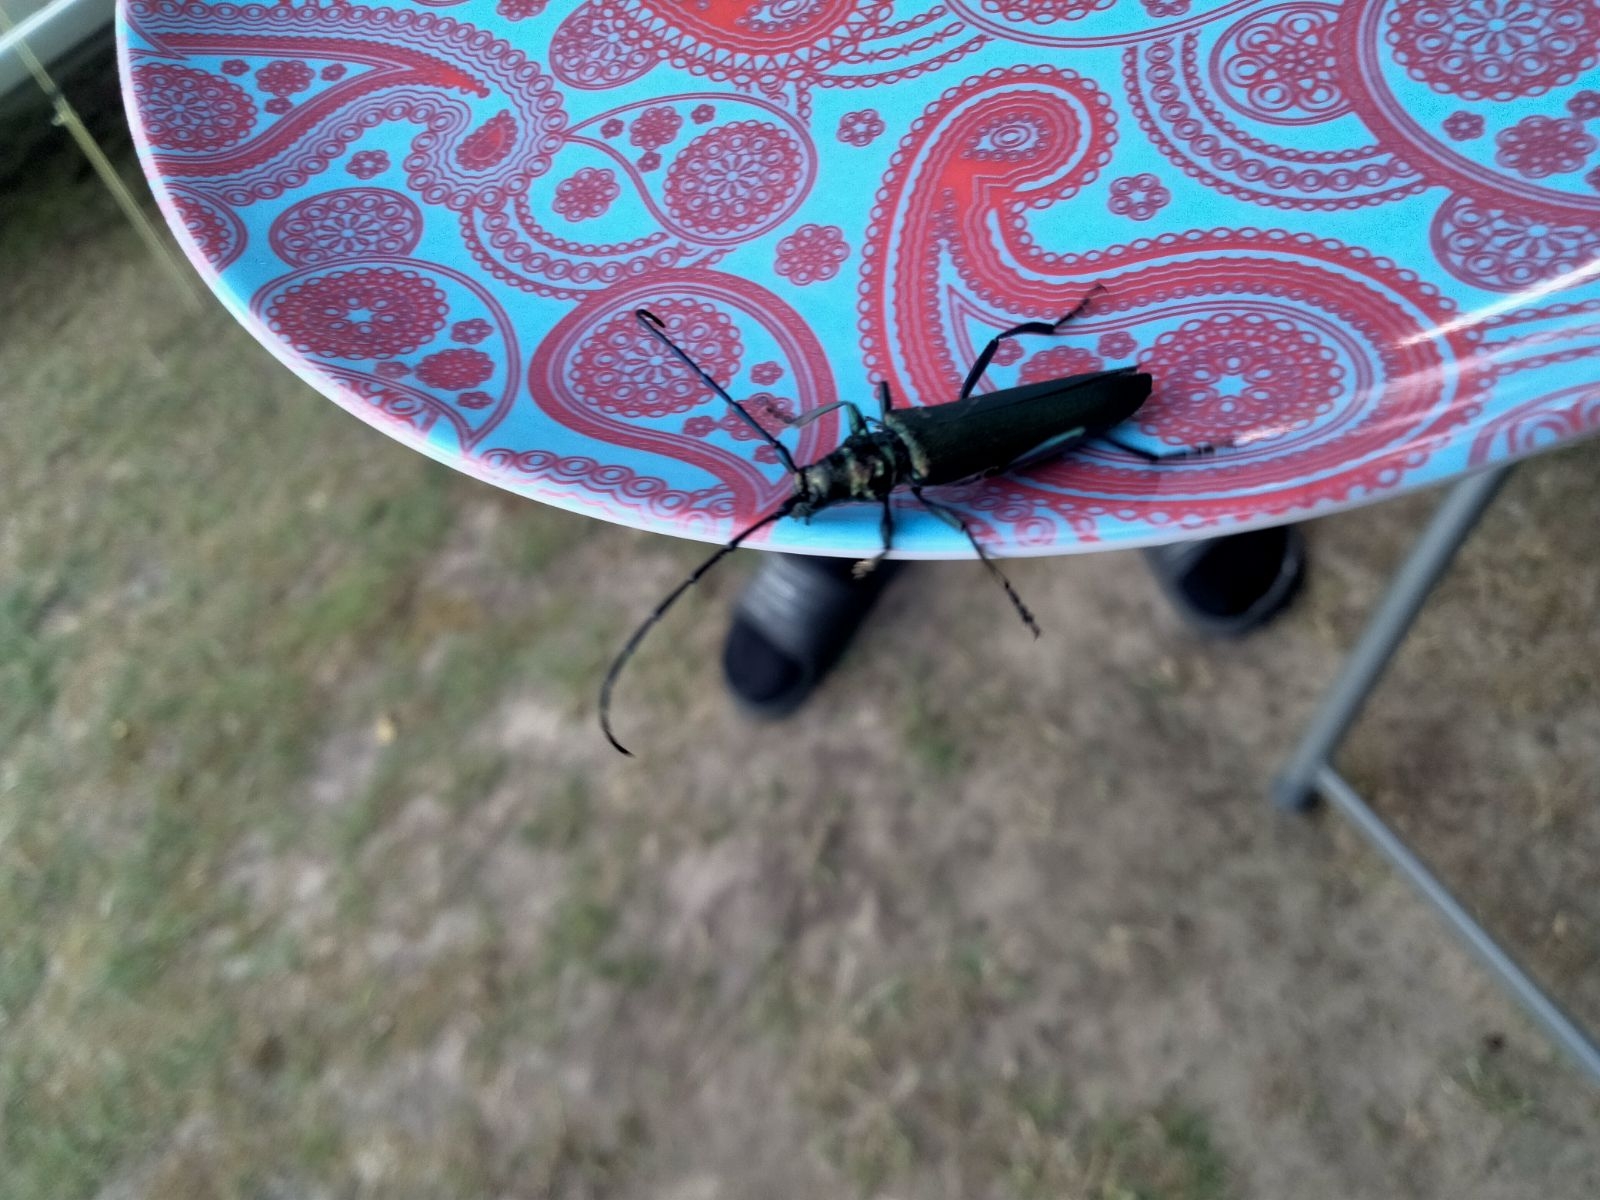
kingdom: Animalia
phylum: Arthropoda
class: Insecta
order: Coleoptera
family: Cerambycidae
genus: Aromia
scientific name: Aromia moschata
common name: Moskusbuk
